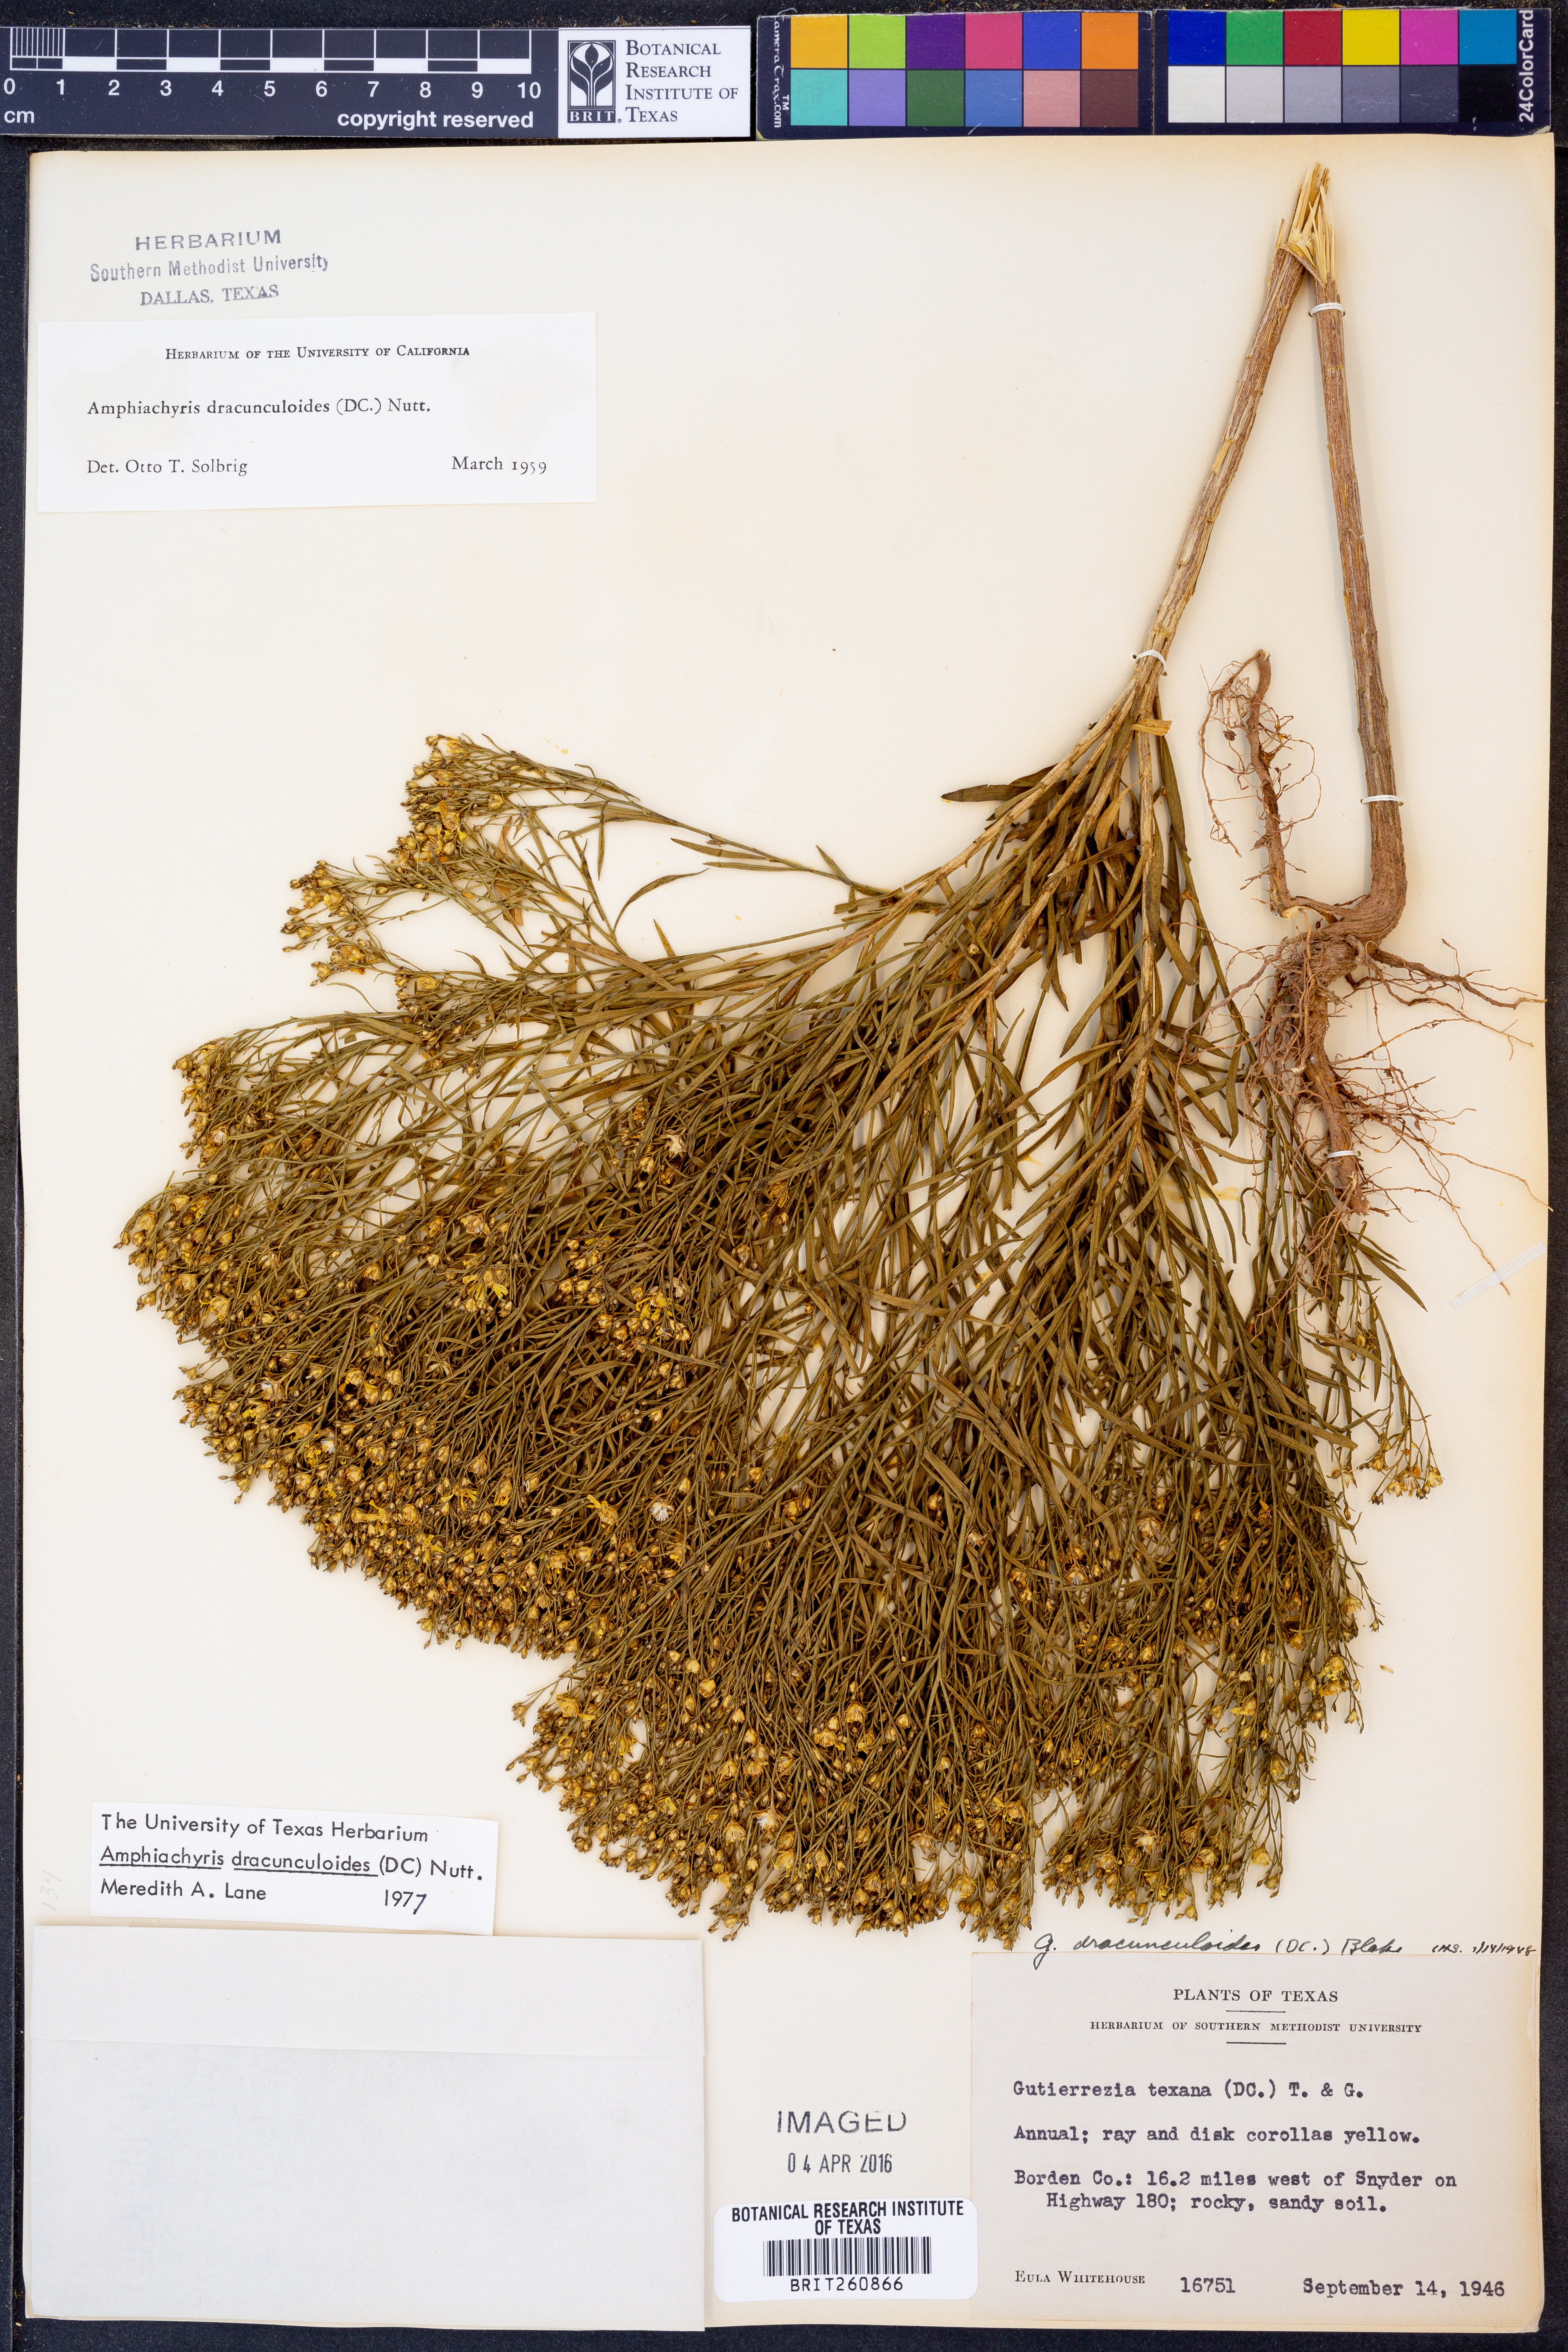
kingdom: Plantae
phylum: Tracheophyta
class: Magnoliopsida
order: Asterales
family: Asteraceae
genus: Amphiachyris
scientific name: Amphiachyris dracunculoides
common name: Broomweed
